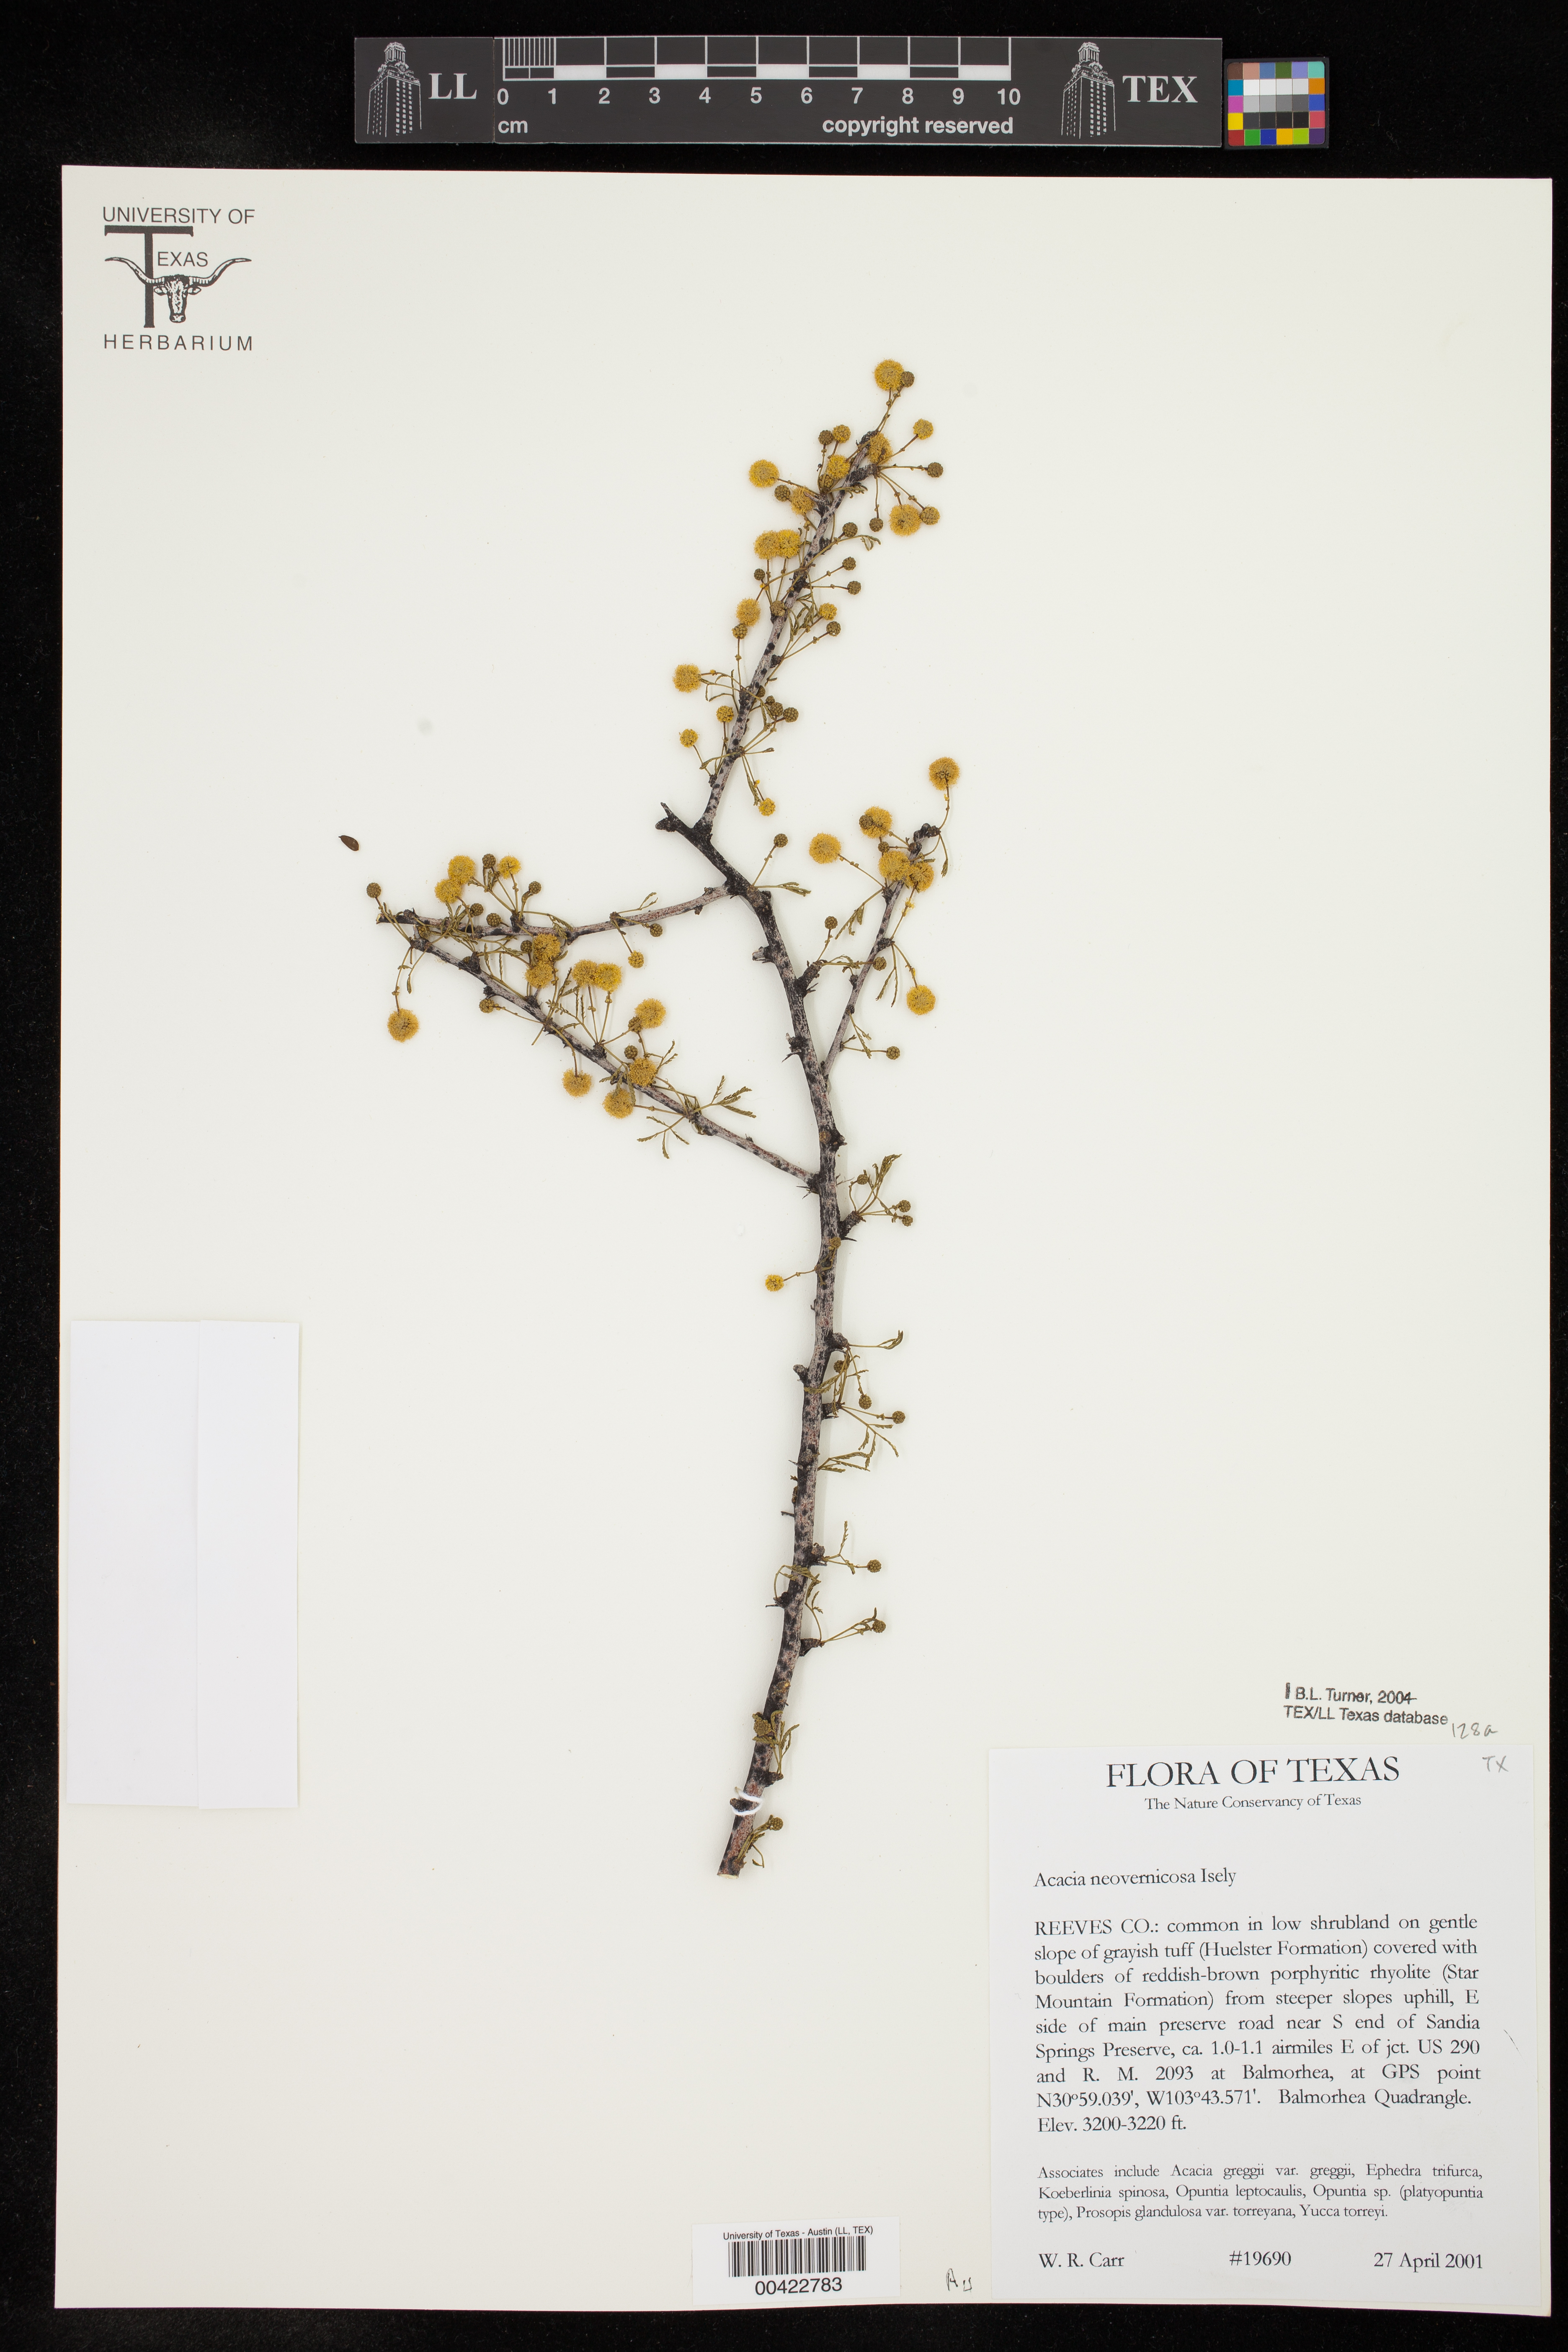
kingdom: Plantae
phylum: Tracheophyta
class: Magnoliopsida
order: Fabales
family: Fabaceae
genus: Vachellia
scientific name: Vachellia vernicosa
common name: Viscid acacia
